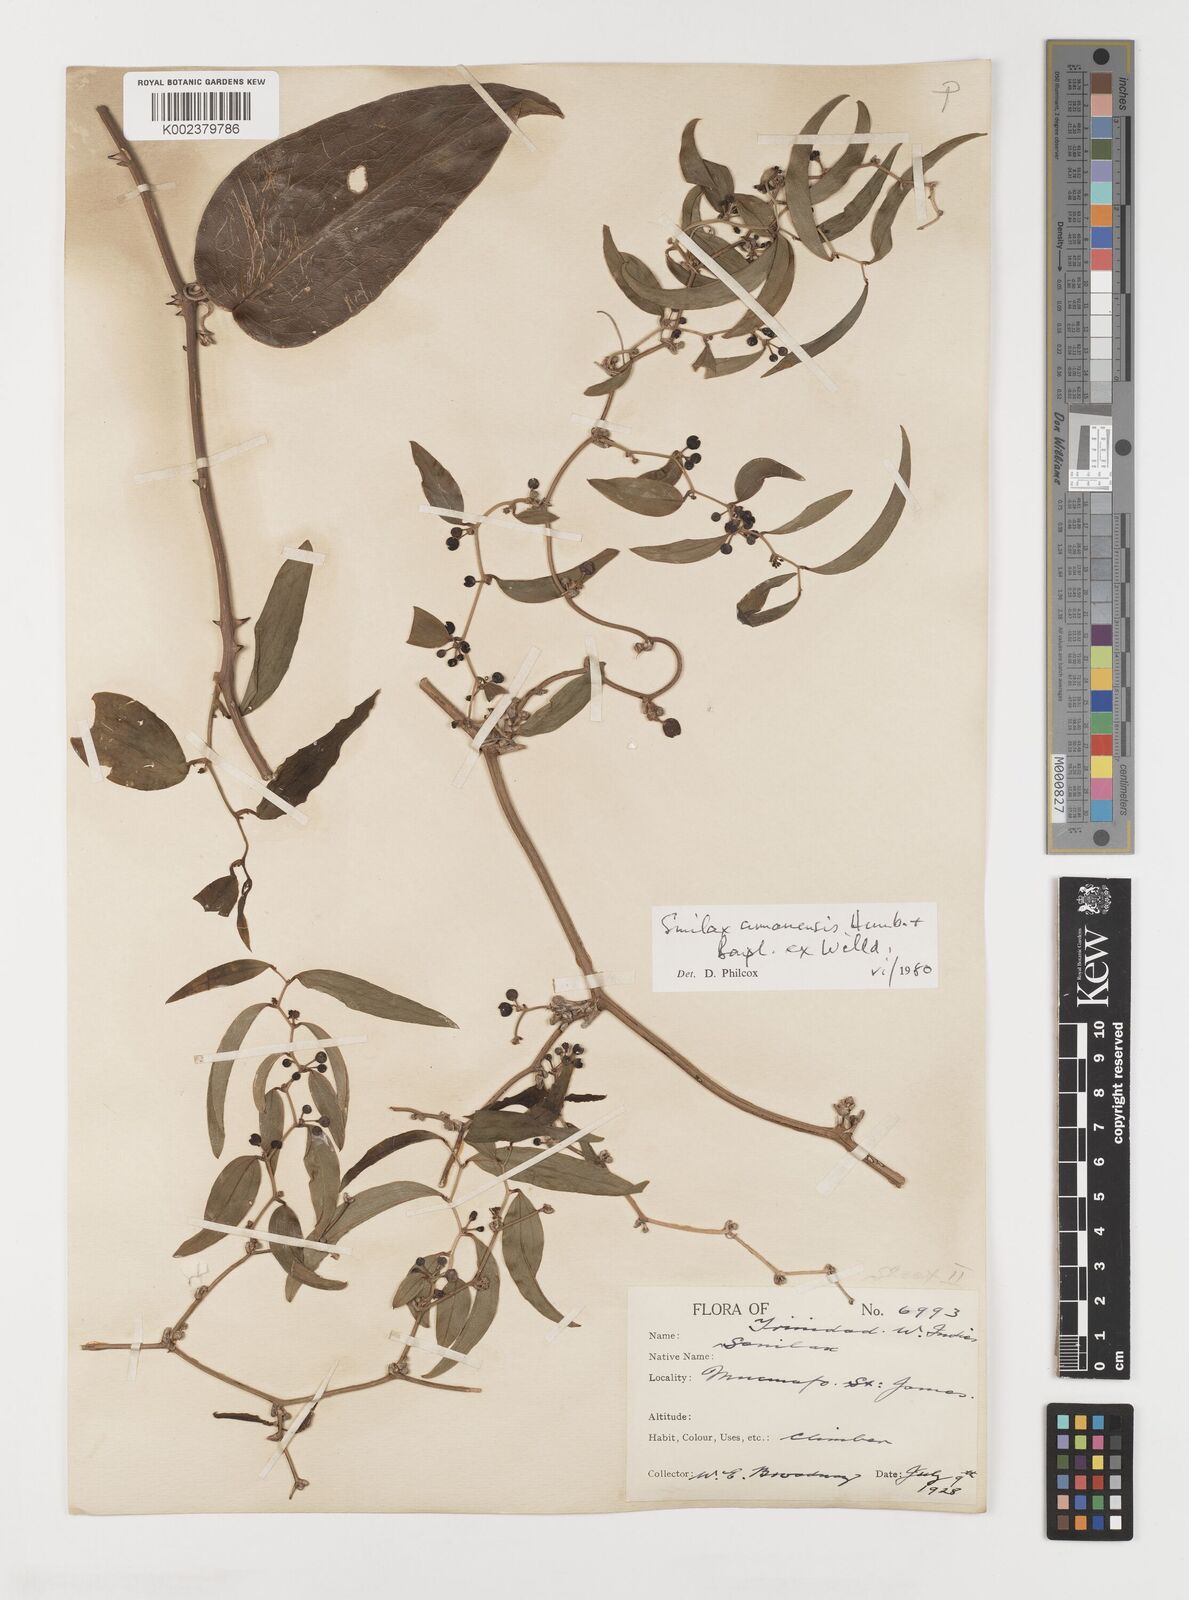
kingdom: Plantae
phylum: Tracheophyta
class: Liliopsida
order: Liliales
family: Smilacaceae
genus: Smilax
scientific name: Smilax oblongata
